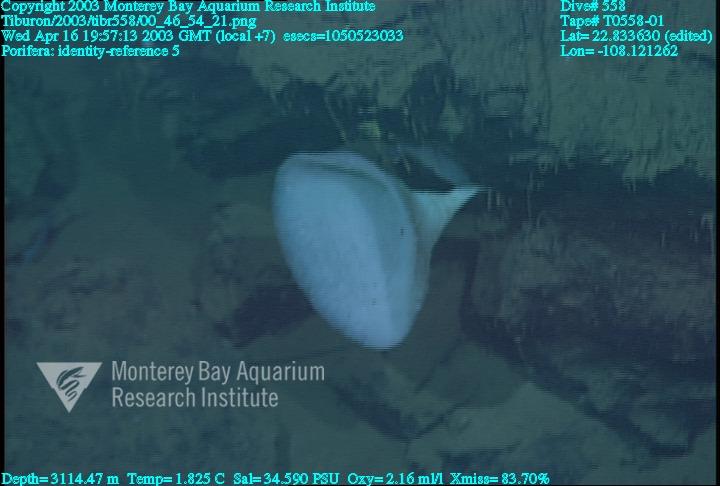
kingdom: Animalia
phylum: Porifera
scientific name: Porifera
